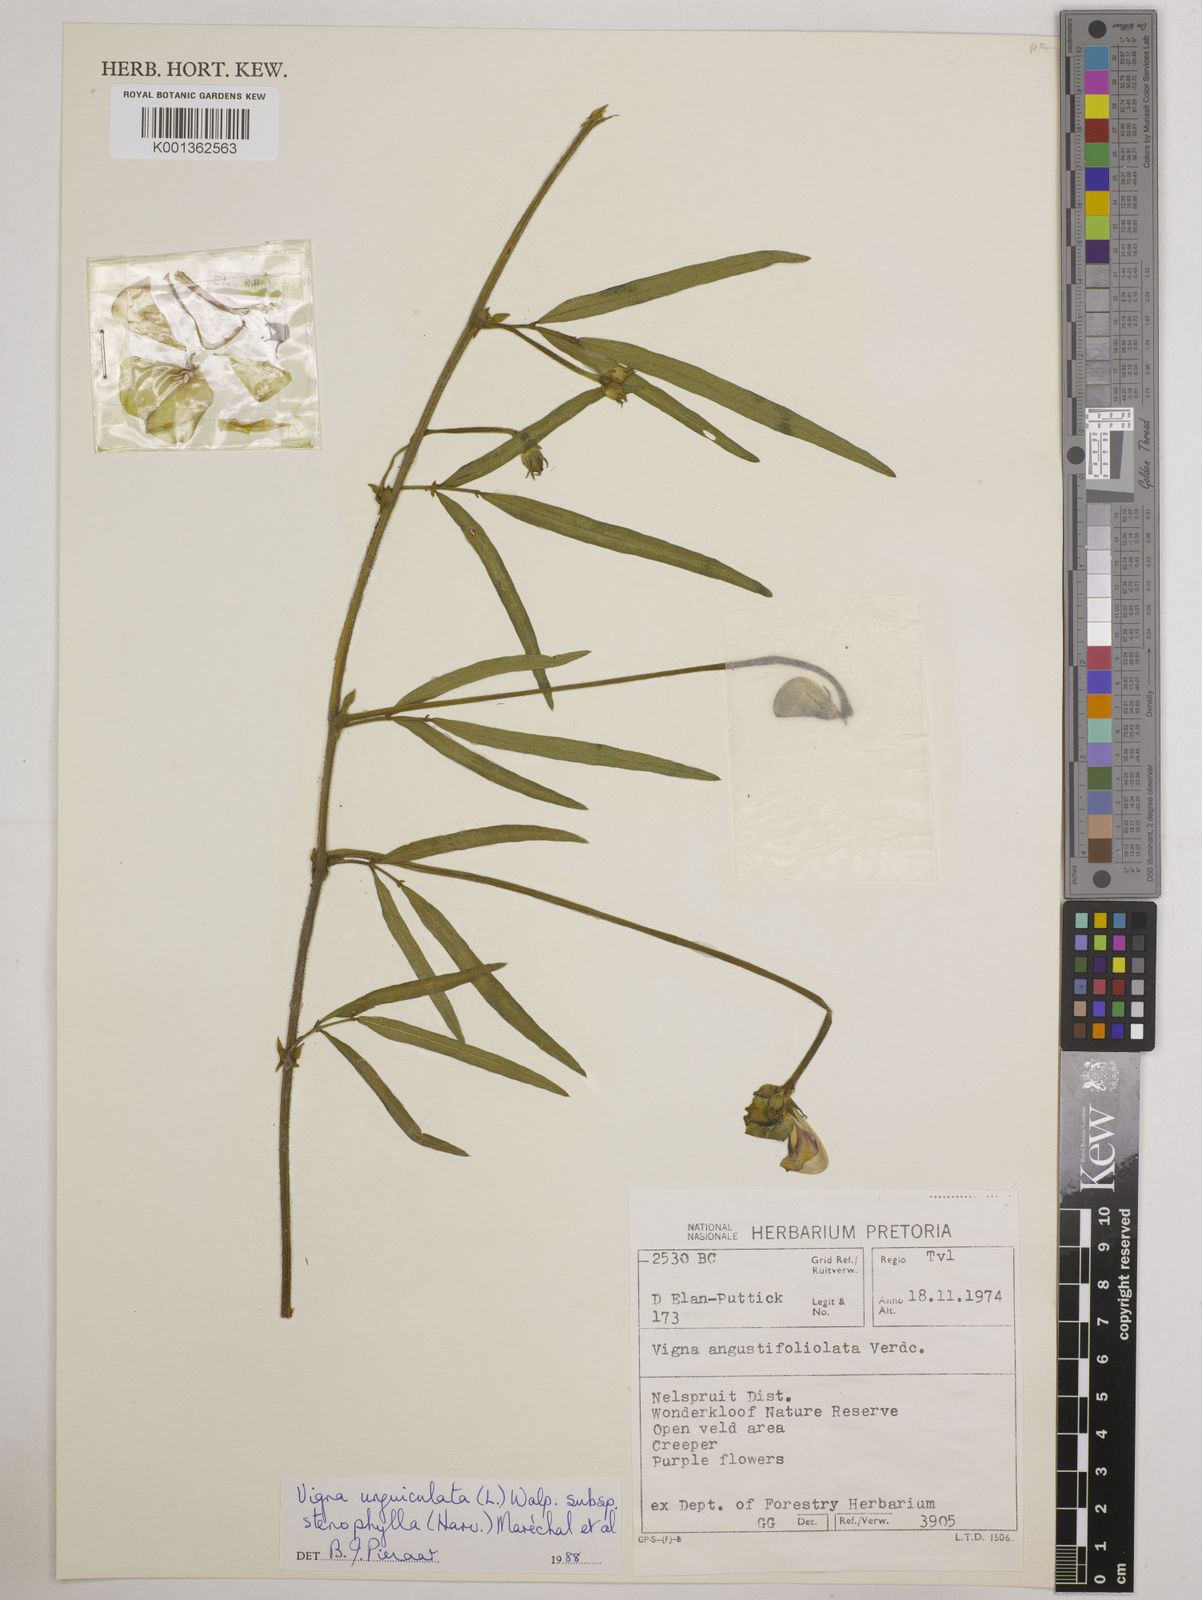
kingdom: Plantae
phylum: Tracheophyta
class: Magnoliopsida
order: Fabales
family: Fabaceae
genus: Vigna
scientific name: Vigna
